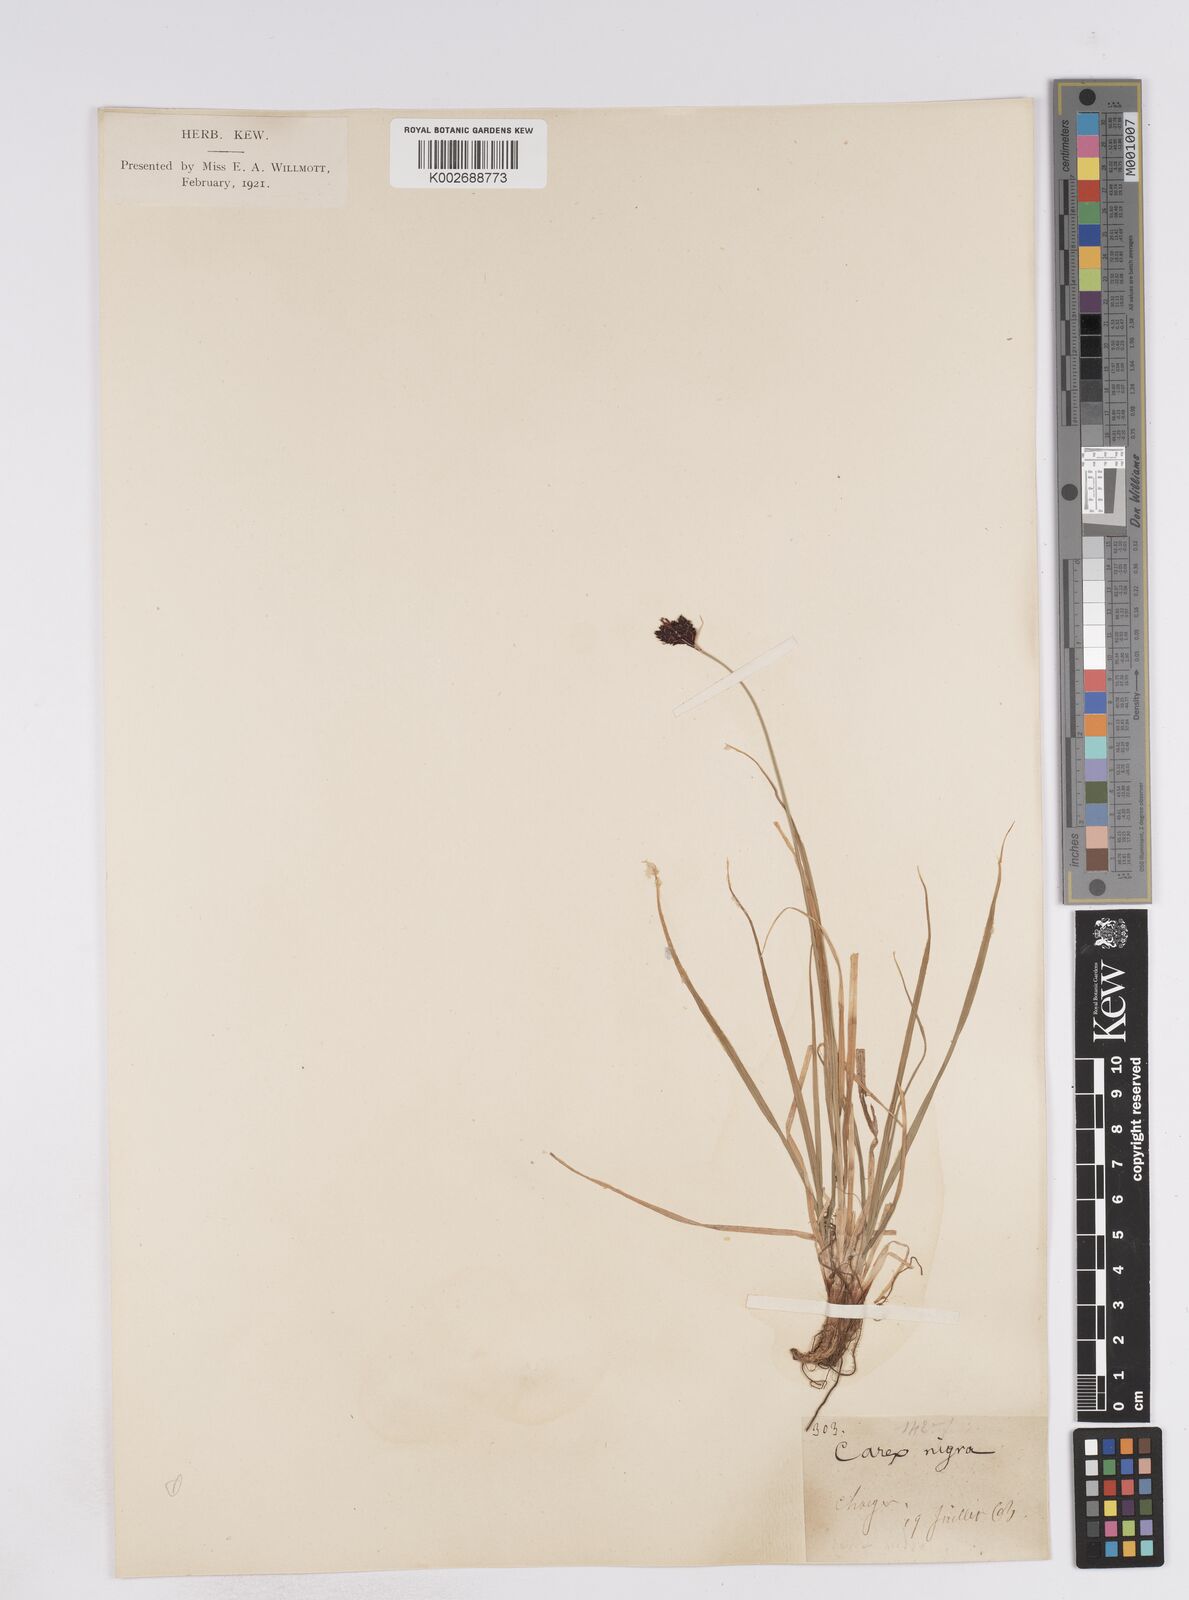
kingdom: Plantae
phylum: Tracheophyta
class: Liliopsida
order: Poales
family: Cyperaceae
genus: Carex
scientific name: Carex parviflora
